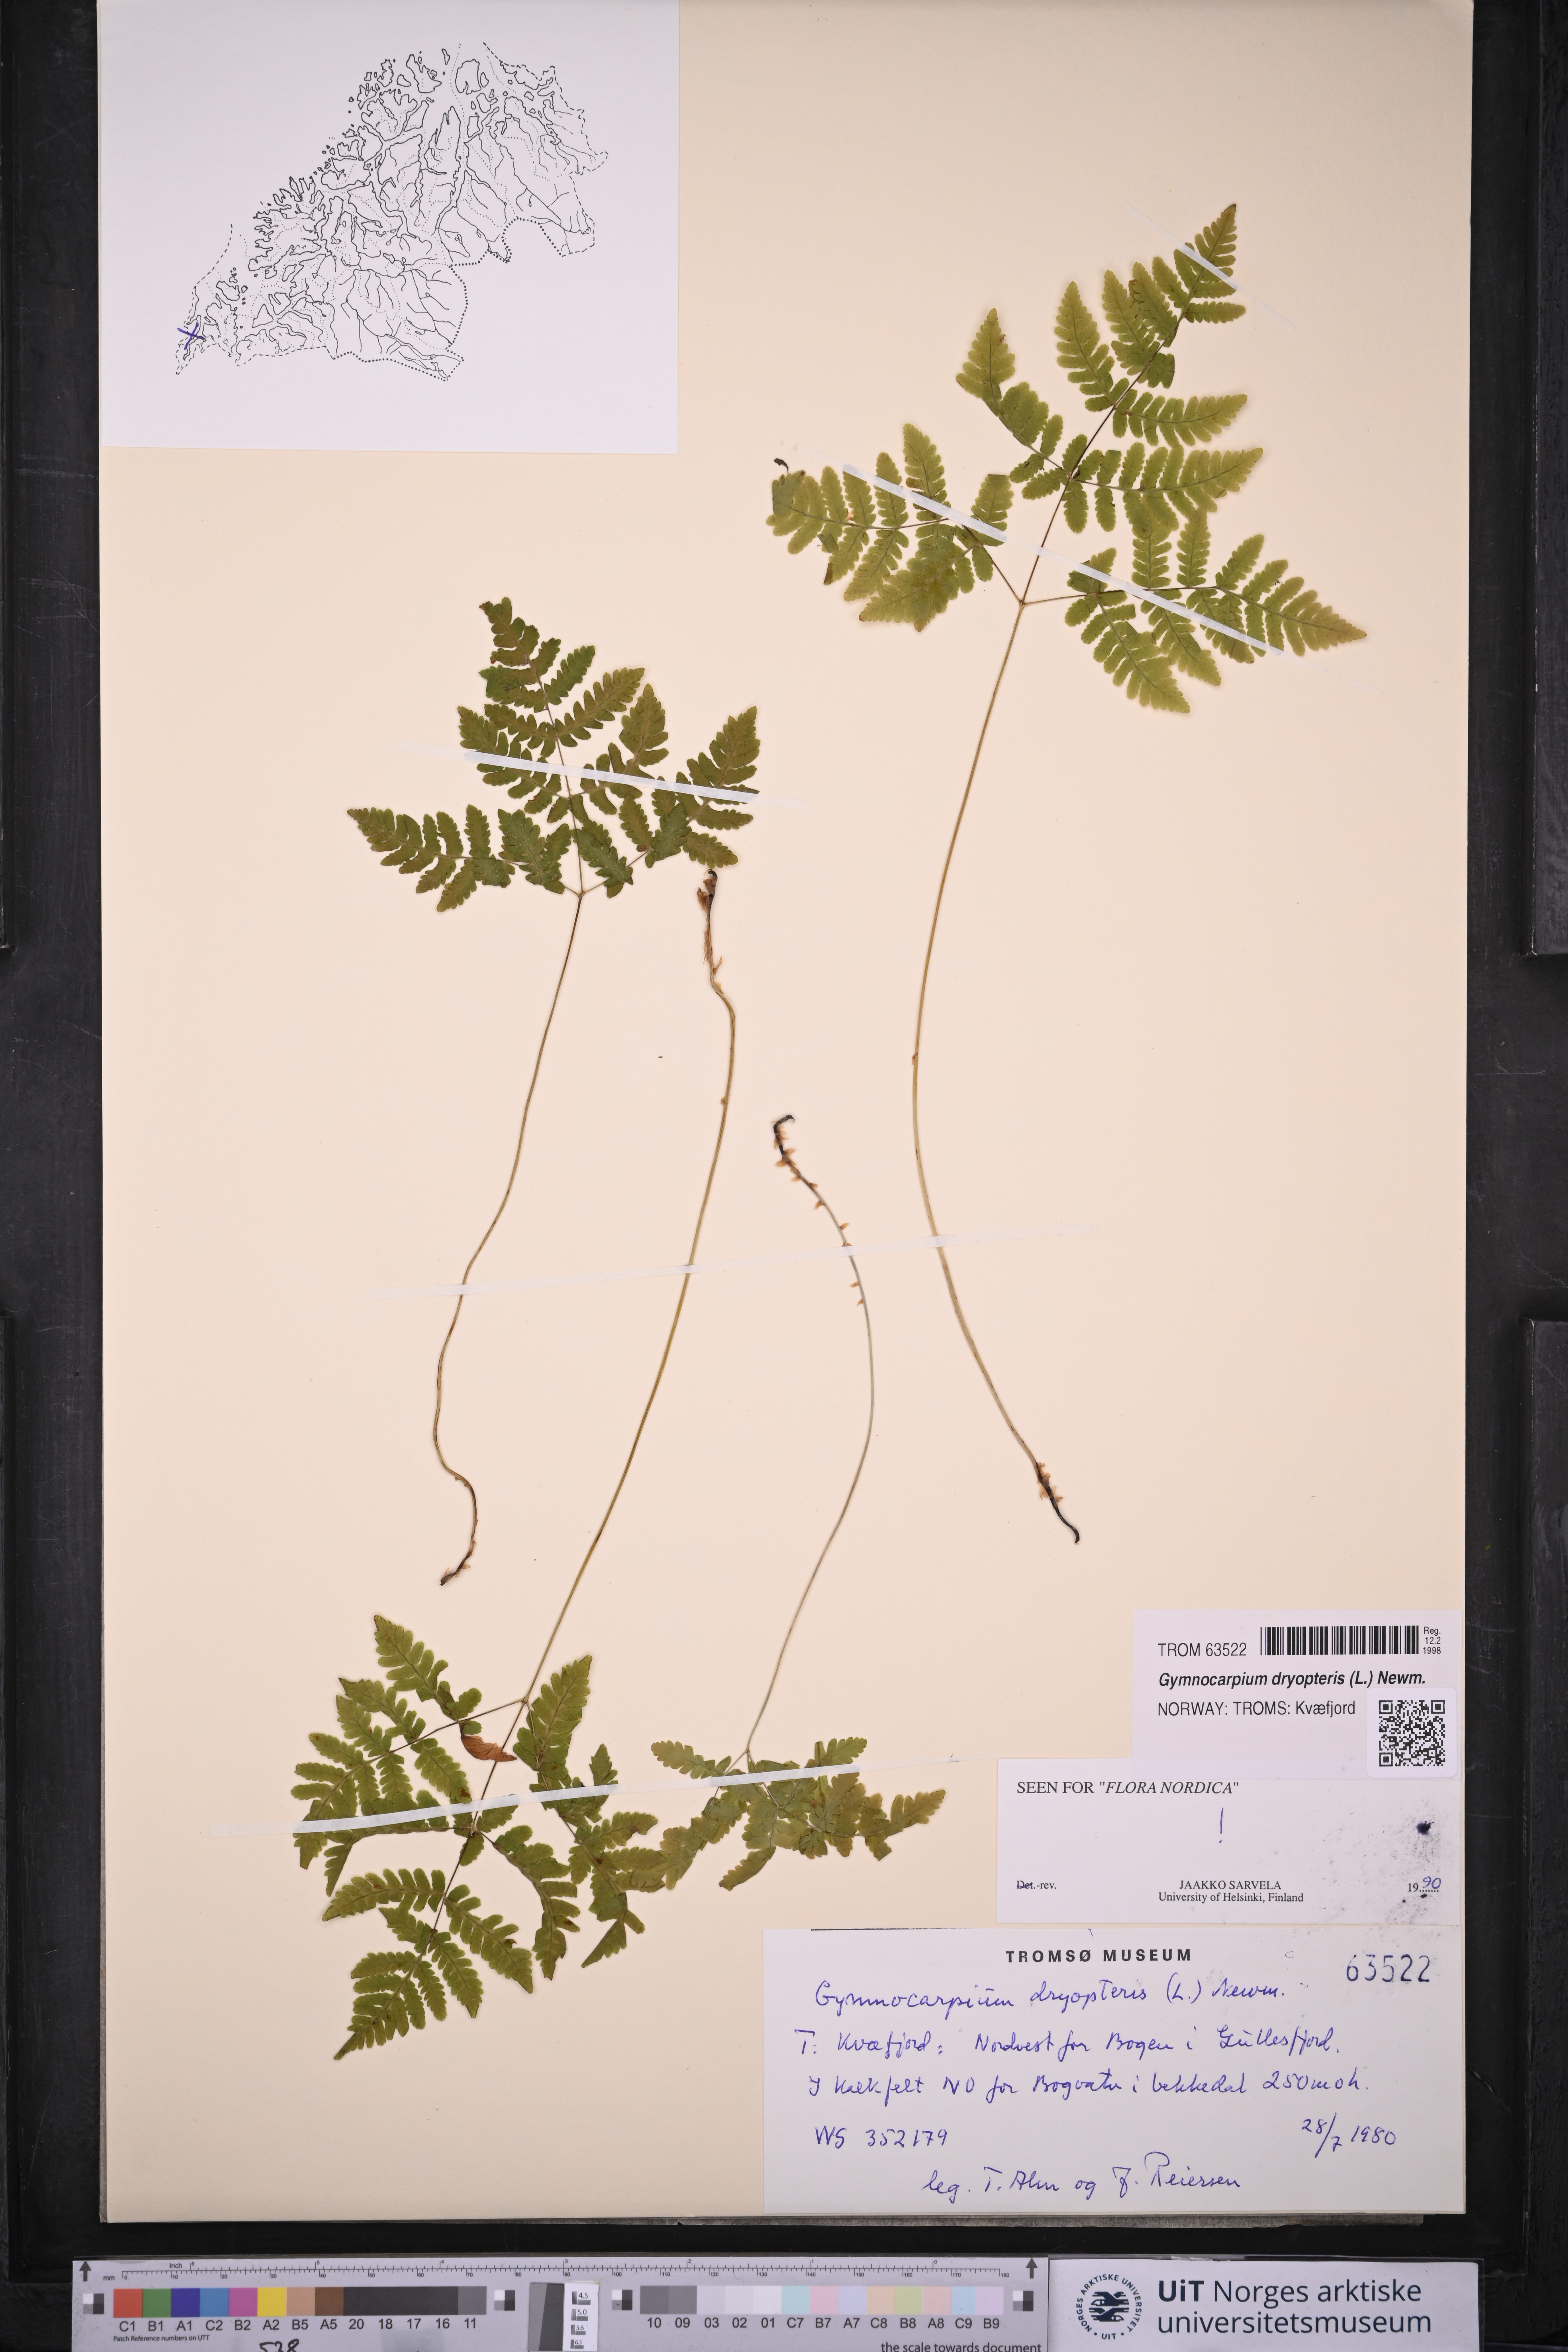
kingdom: Plantae
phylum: Tracheophyta
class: Polypodiopsida
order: Polypodiales
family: Cystopteridaceae
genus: Gymnocarpium
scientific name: Gymnocarpium dryopteris
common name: Oak fern
